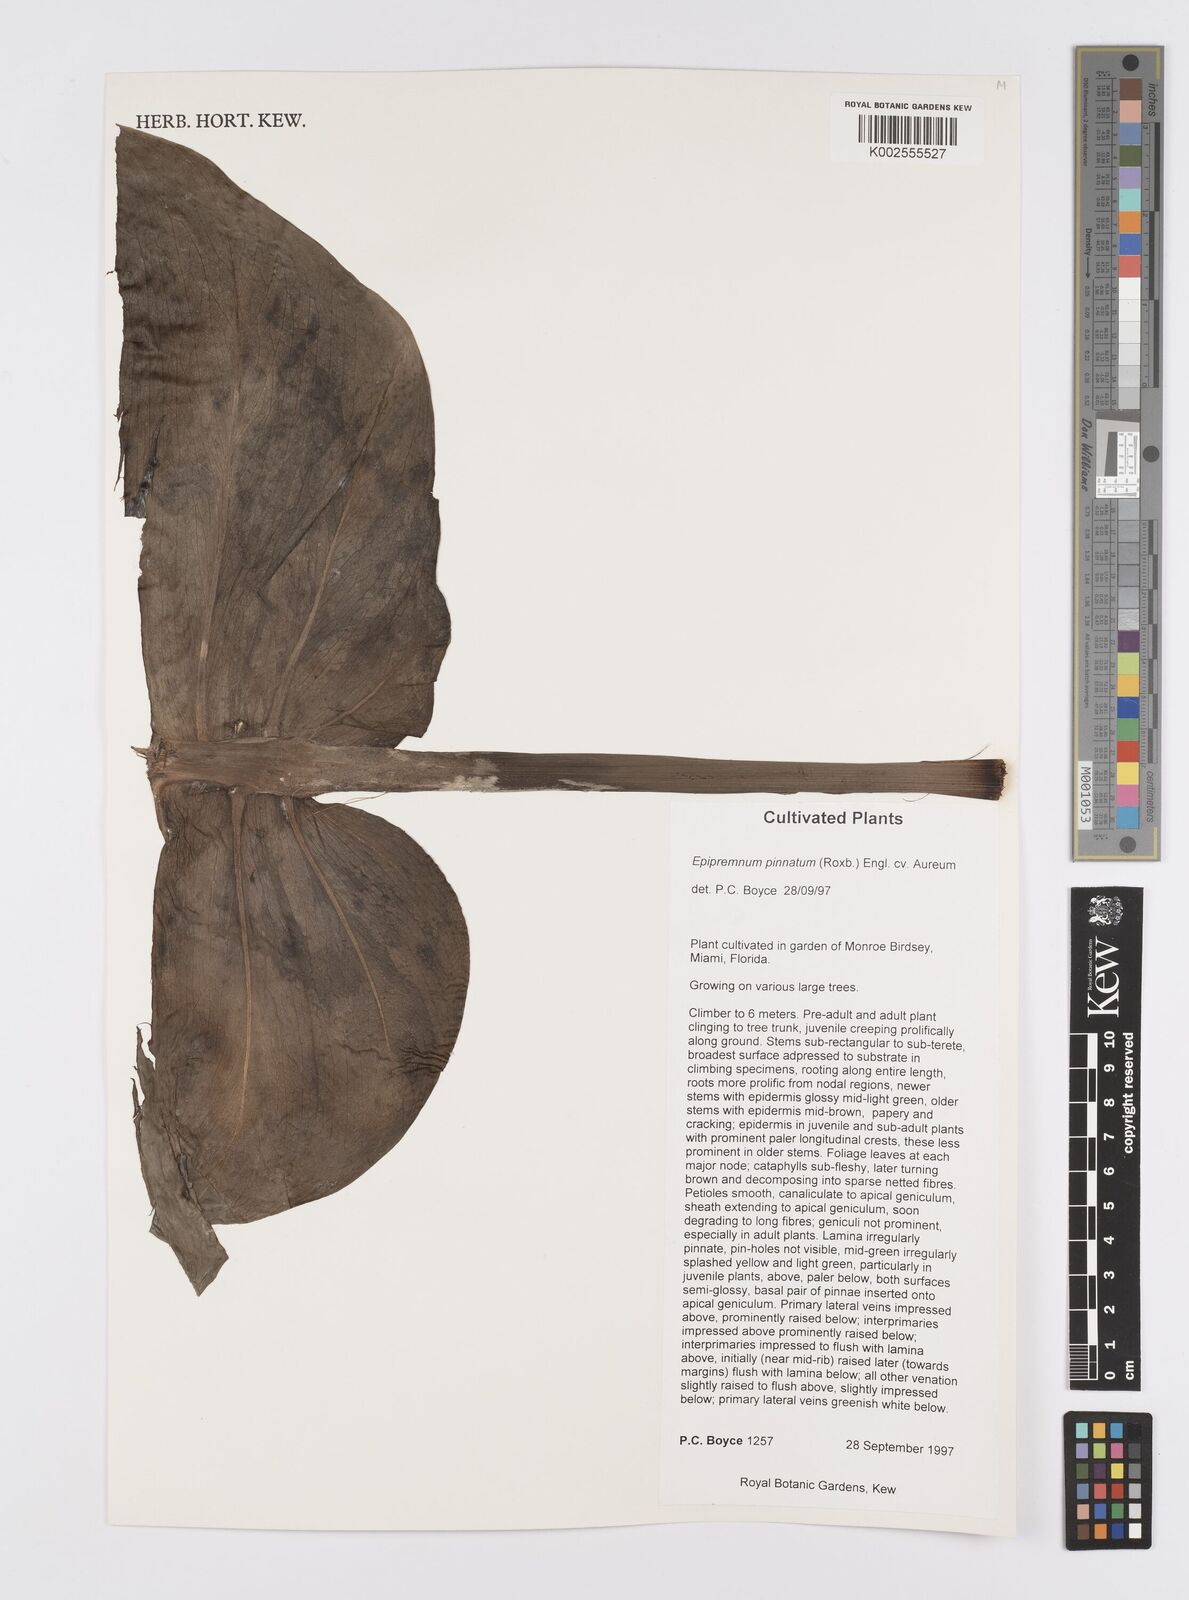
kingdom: Plantae
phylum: Tracheophyta
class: Liliopsida
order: Alismatales
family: Araceae
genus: Epipremnum
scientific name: Epipremnum aureum
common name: Golden hunter's-robe
